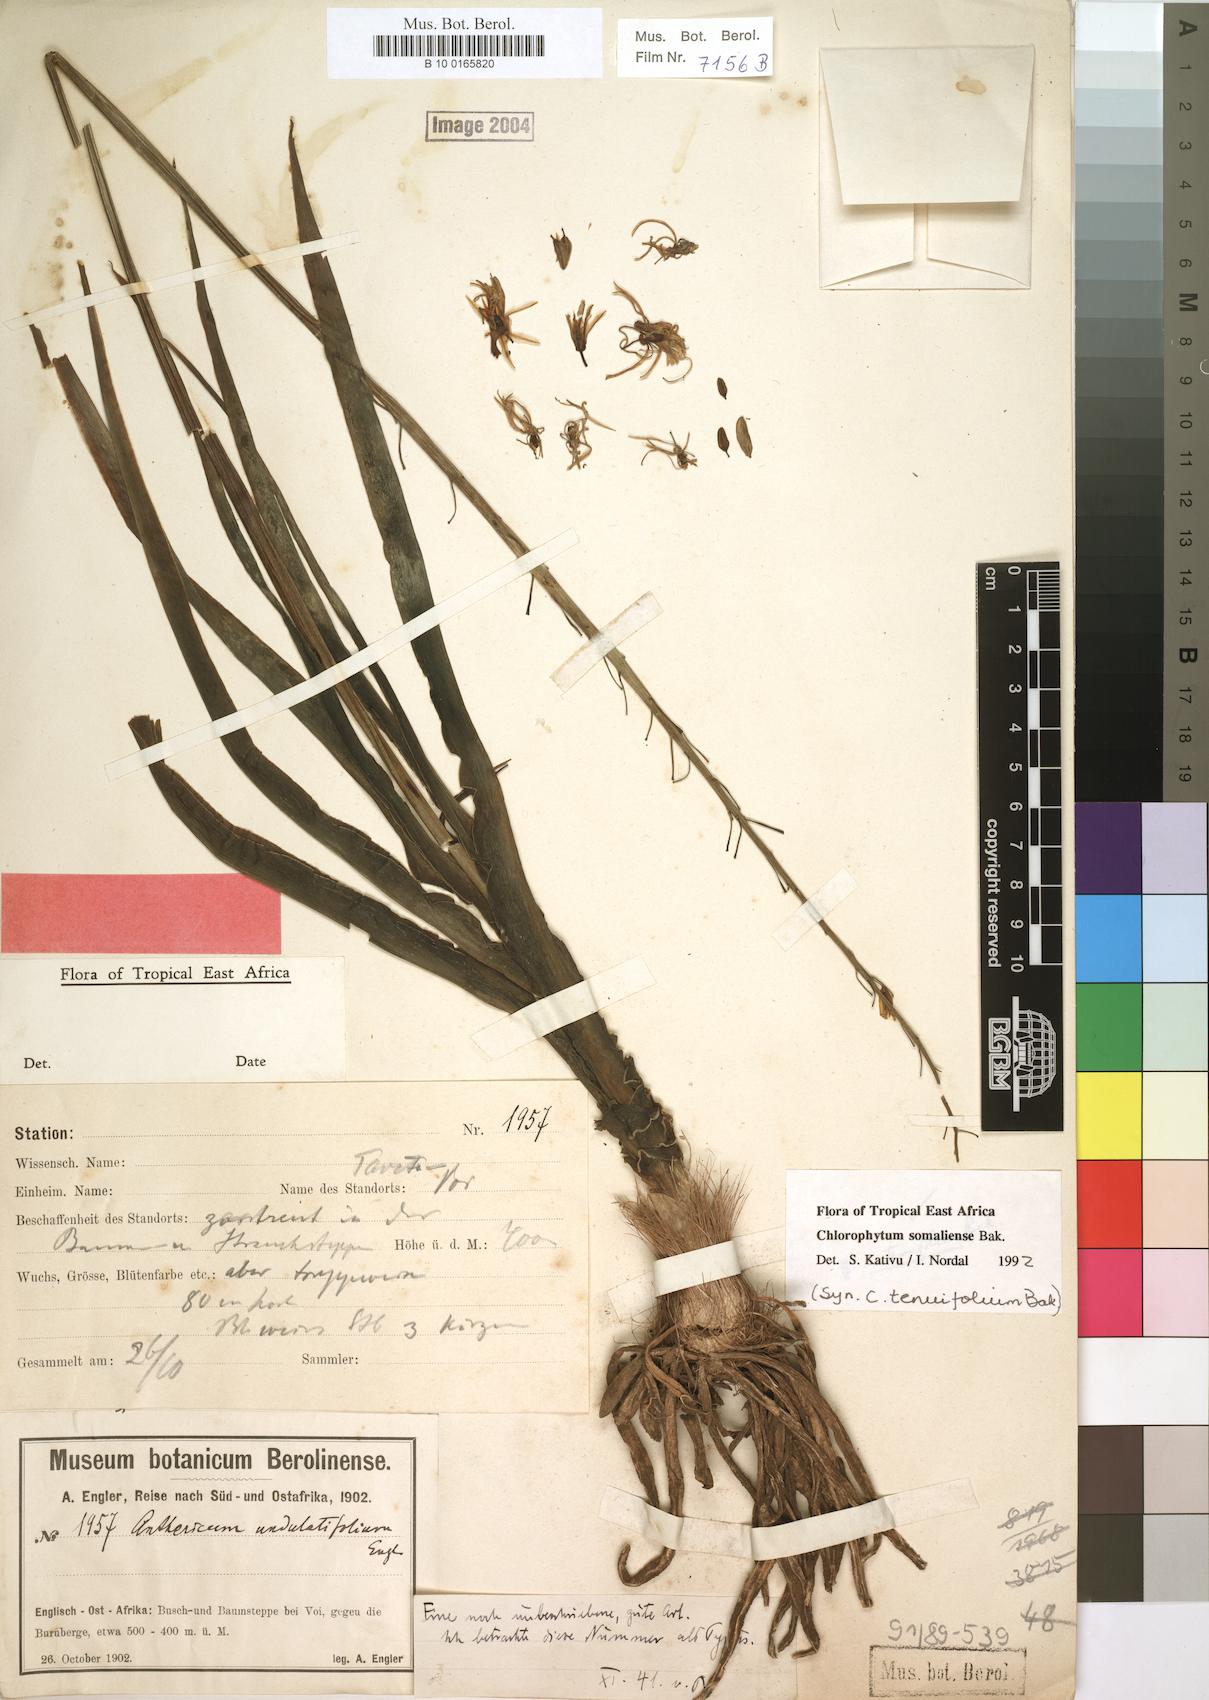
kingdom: Plantae
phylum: Tracheophyta
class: Liliopsida
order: Asparagales
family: Asparagaceae
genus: Chlorophytum
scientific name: Chlorophytum somaliense
